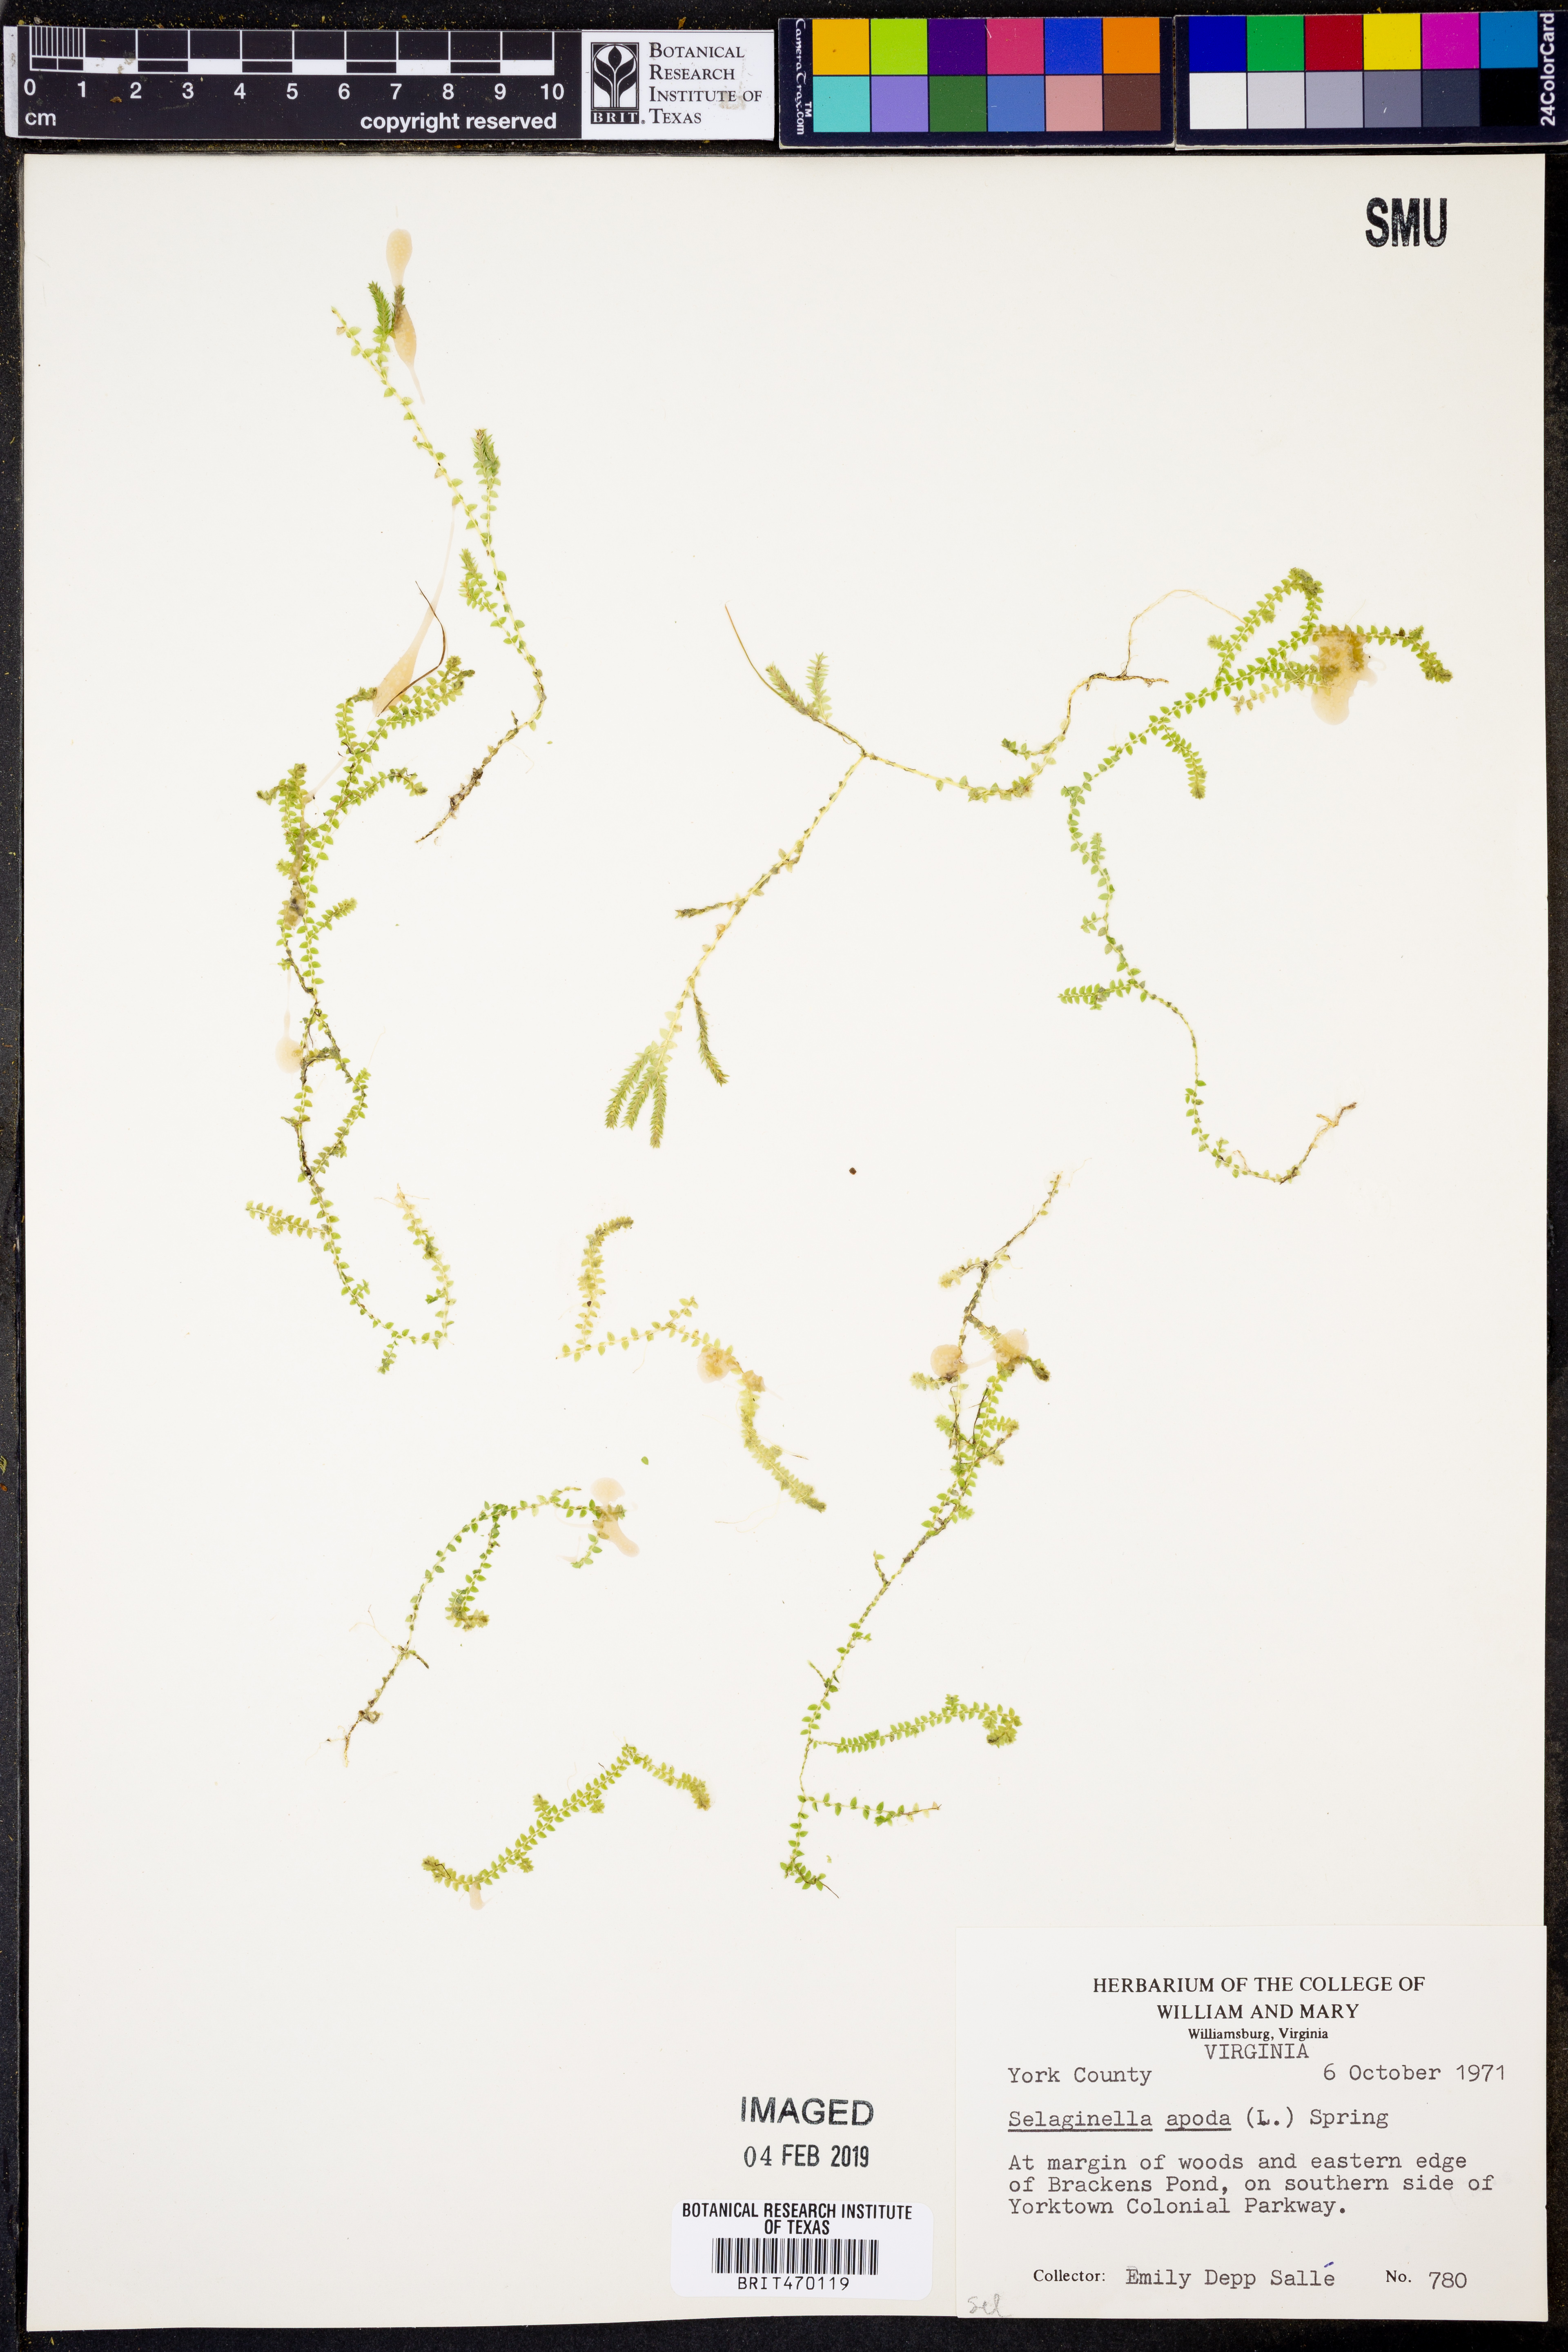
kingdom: Plantae
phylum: Tracheophyta
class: Lycopodiopsida
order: Selaginellales
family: Selaginellaceae
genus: Selaginella
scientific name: Selaginella apoda
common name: Creeping spikemoss
